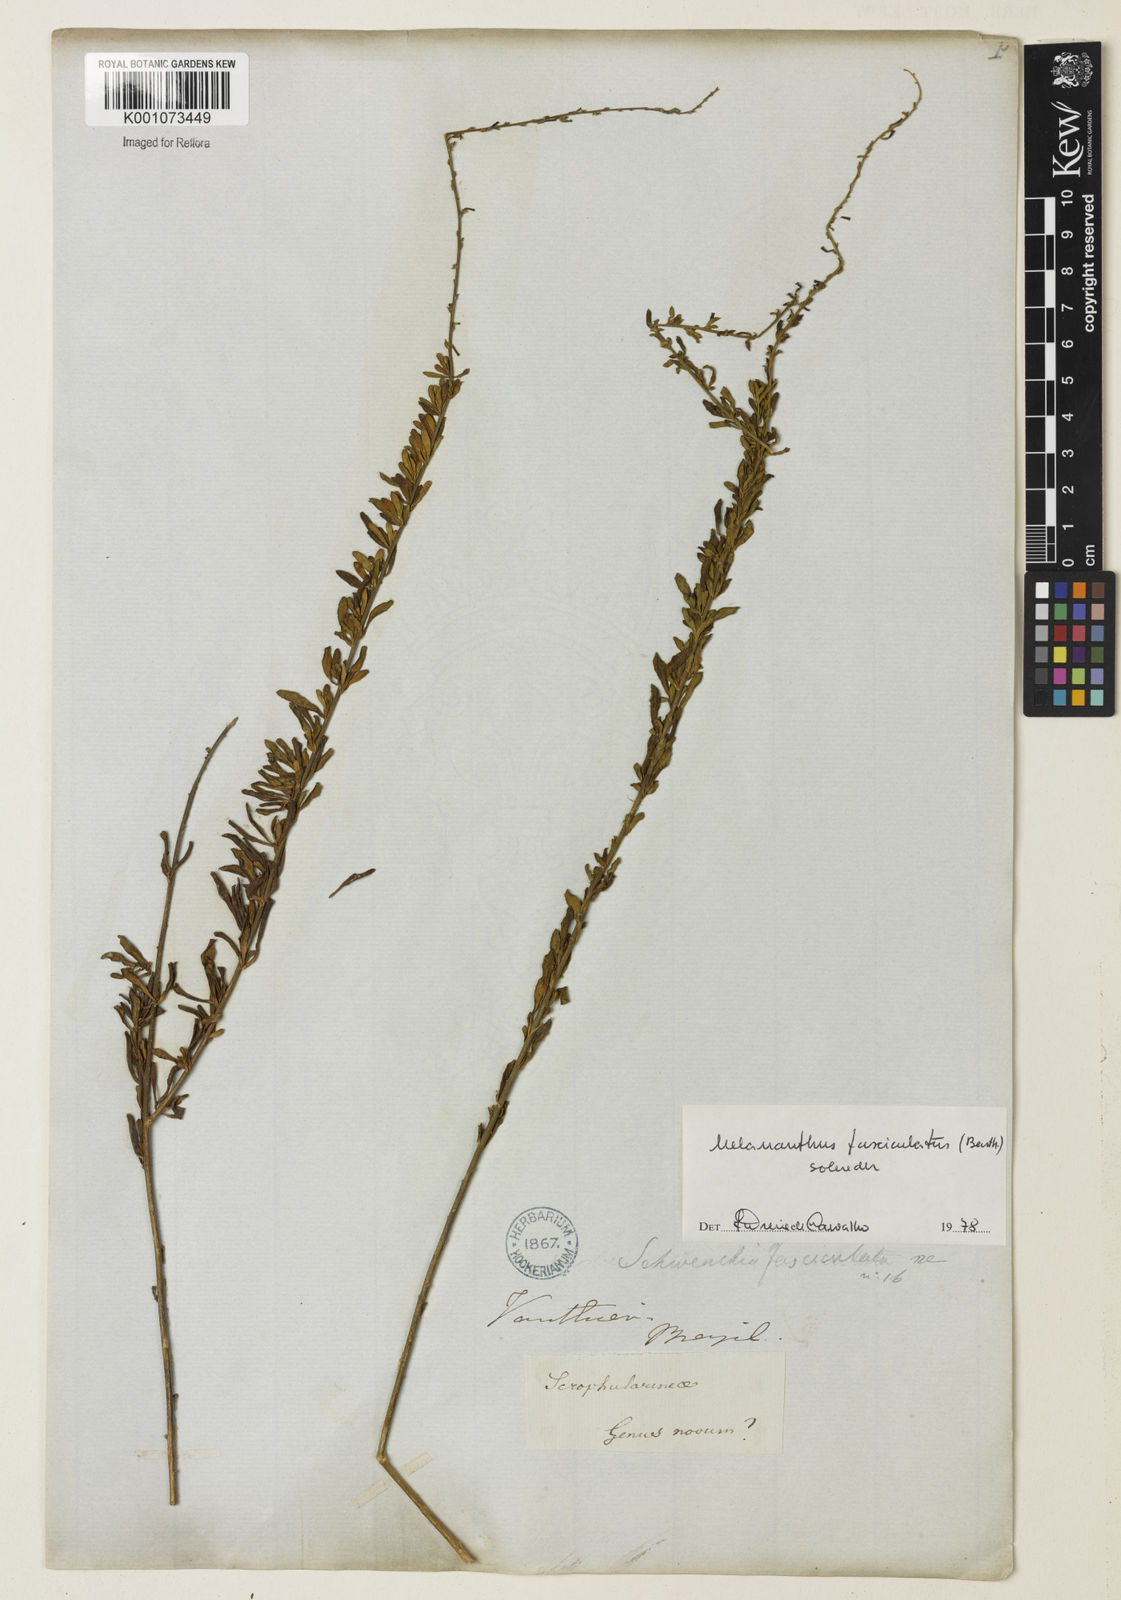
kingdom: Plantae
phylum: Tracheophyta
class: Magnoliopsida
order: Solanales
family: Solanaceae
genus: Melananthus
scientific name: Melananthus fasciculatus
